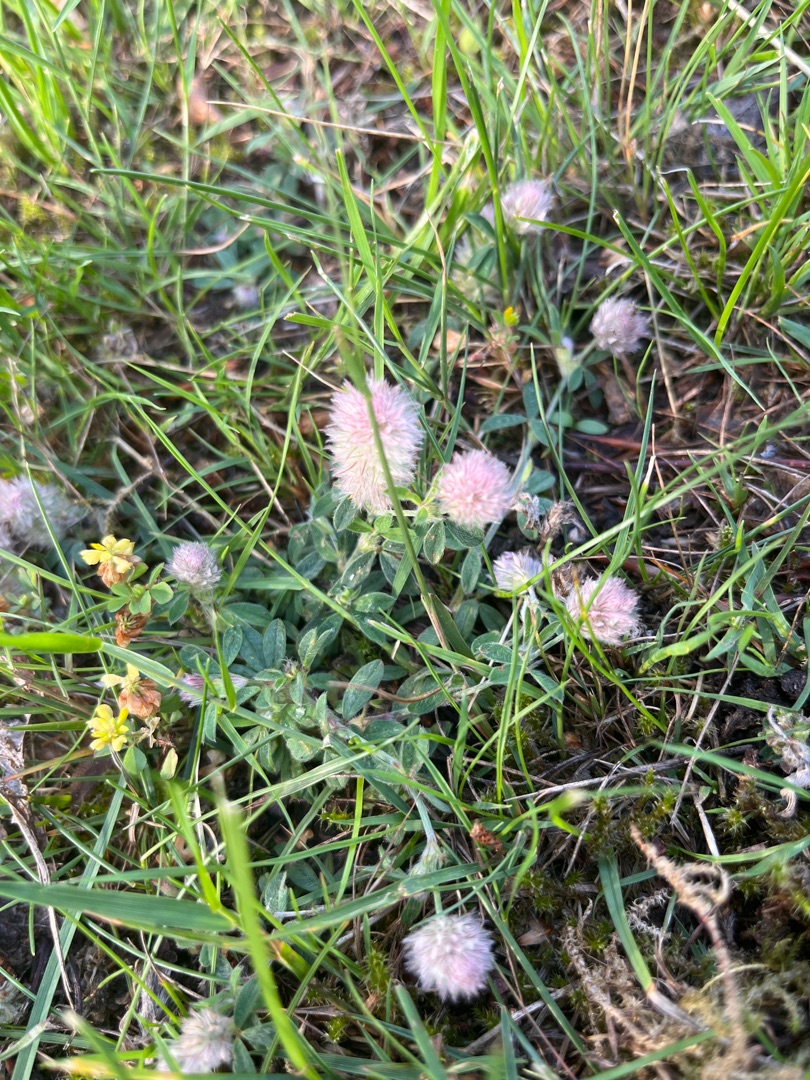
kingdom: Plantae
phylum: Tracheophyta
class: Magnoliopsida
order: Fabales
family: Fabaceae
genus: Trifolium
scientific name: Trifolium arvense
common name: Hare-kløver
